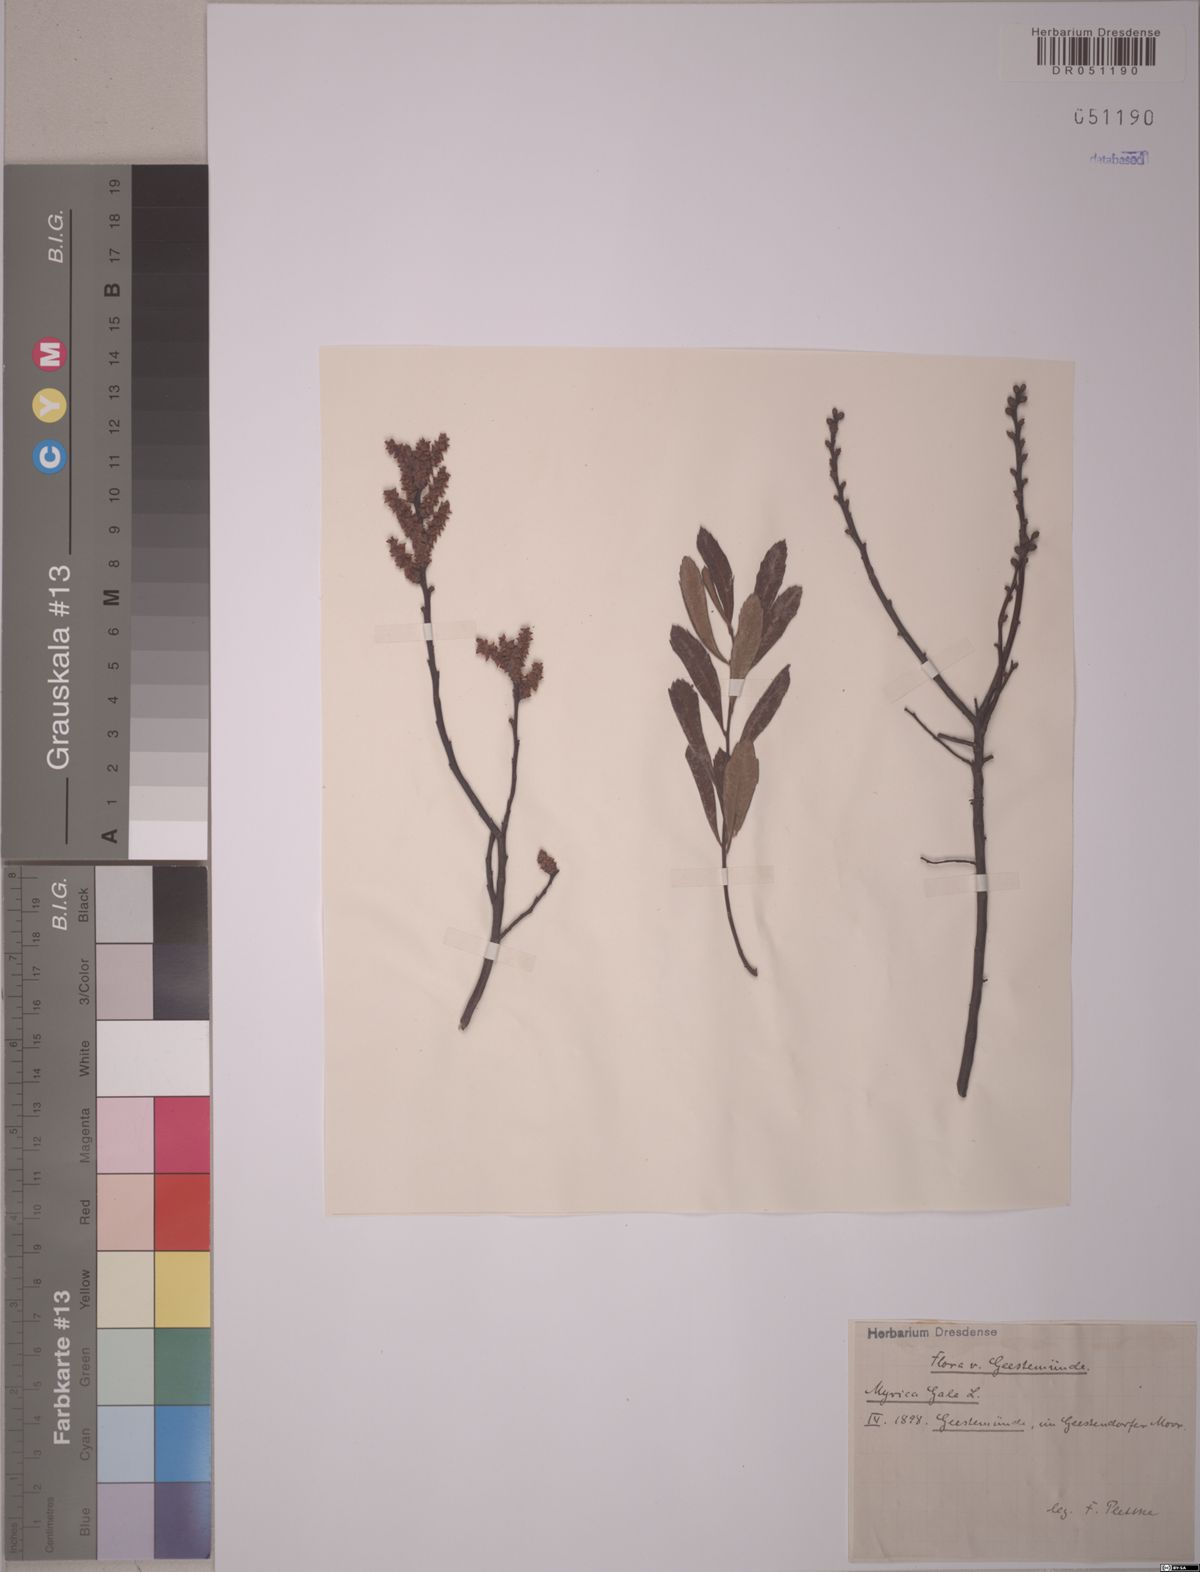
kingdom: Plantae
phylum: Tracheophyta
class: Magnoliopsida
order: Fagales
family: Myricaceae
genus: Myrica
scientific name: Myrica gale
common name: Sweet gale
